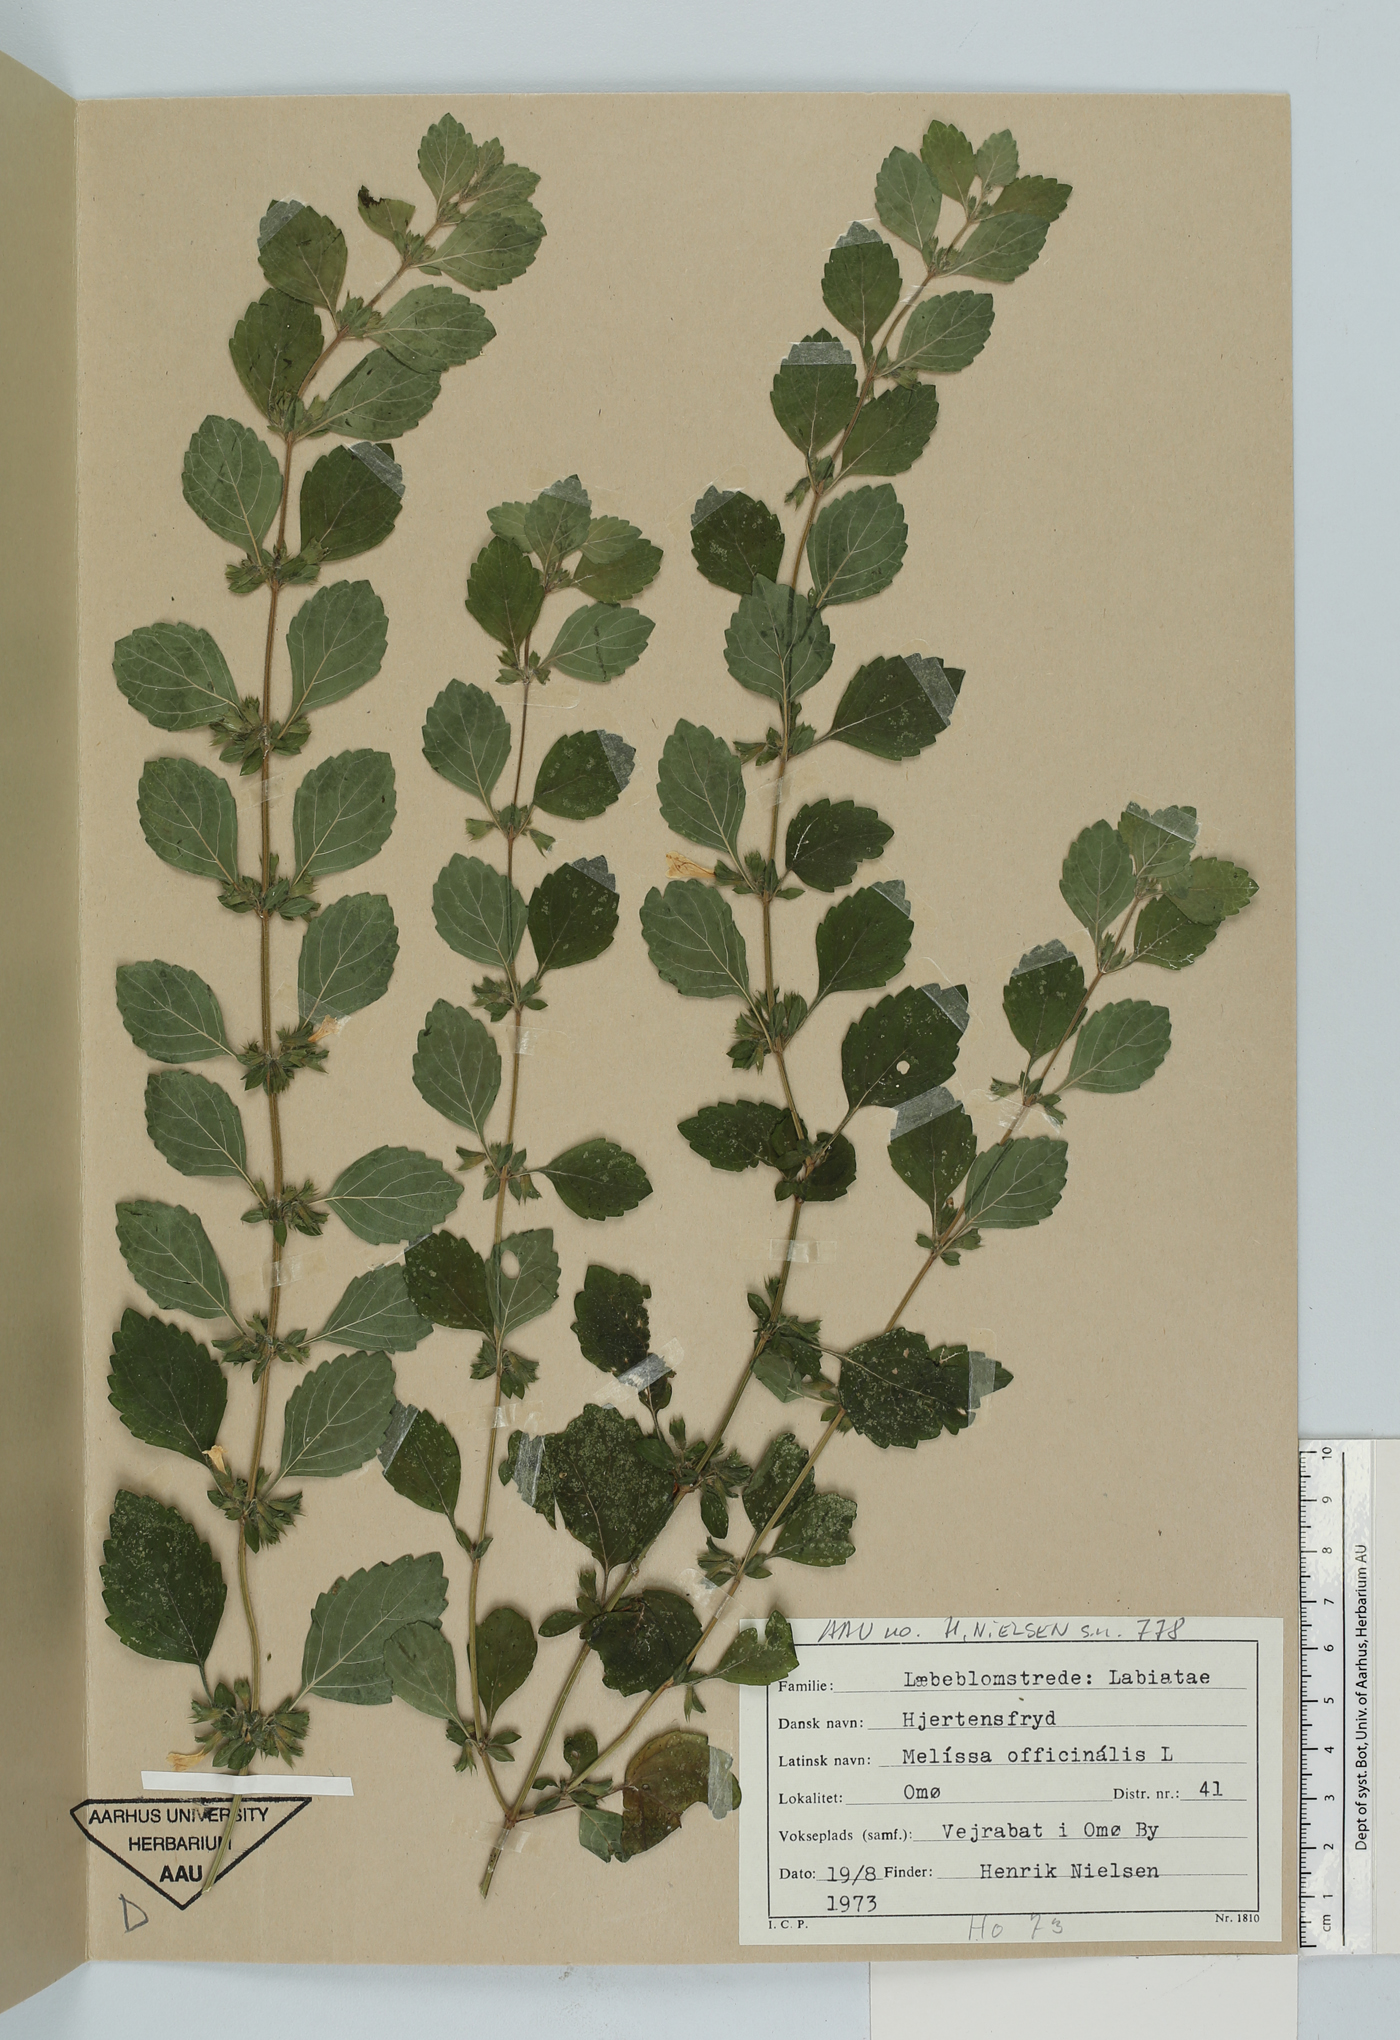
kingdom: Plantae
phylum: Tracheophyta
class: Magnoliopsida
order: Lamiales
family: Lamiaceae
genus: Melissa
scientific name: Melissa officinalis
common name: Balm
